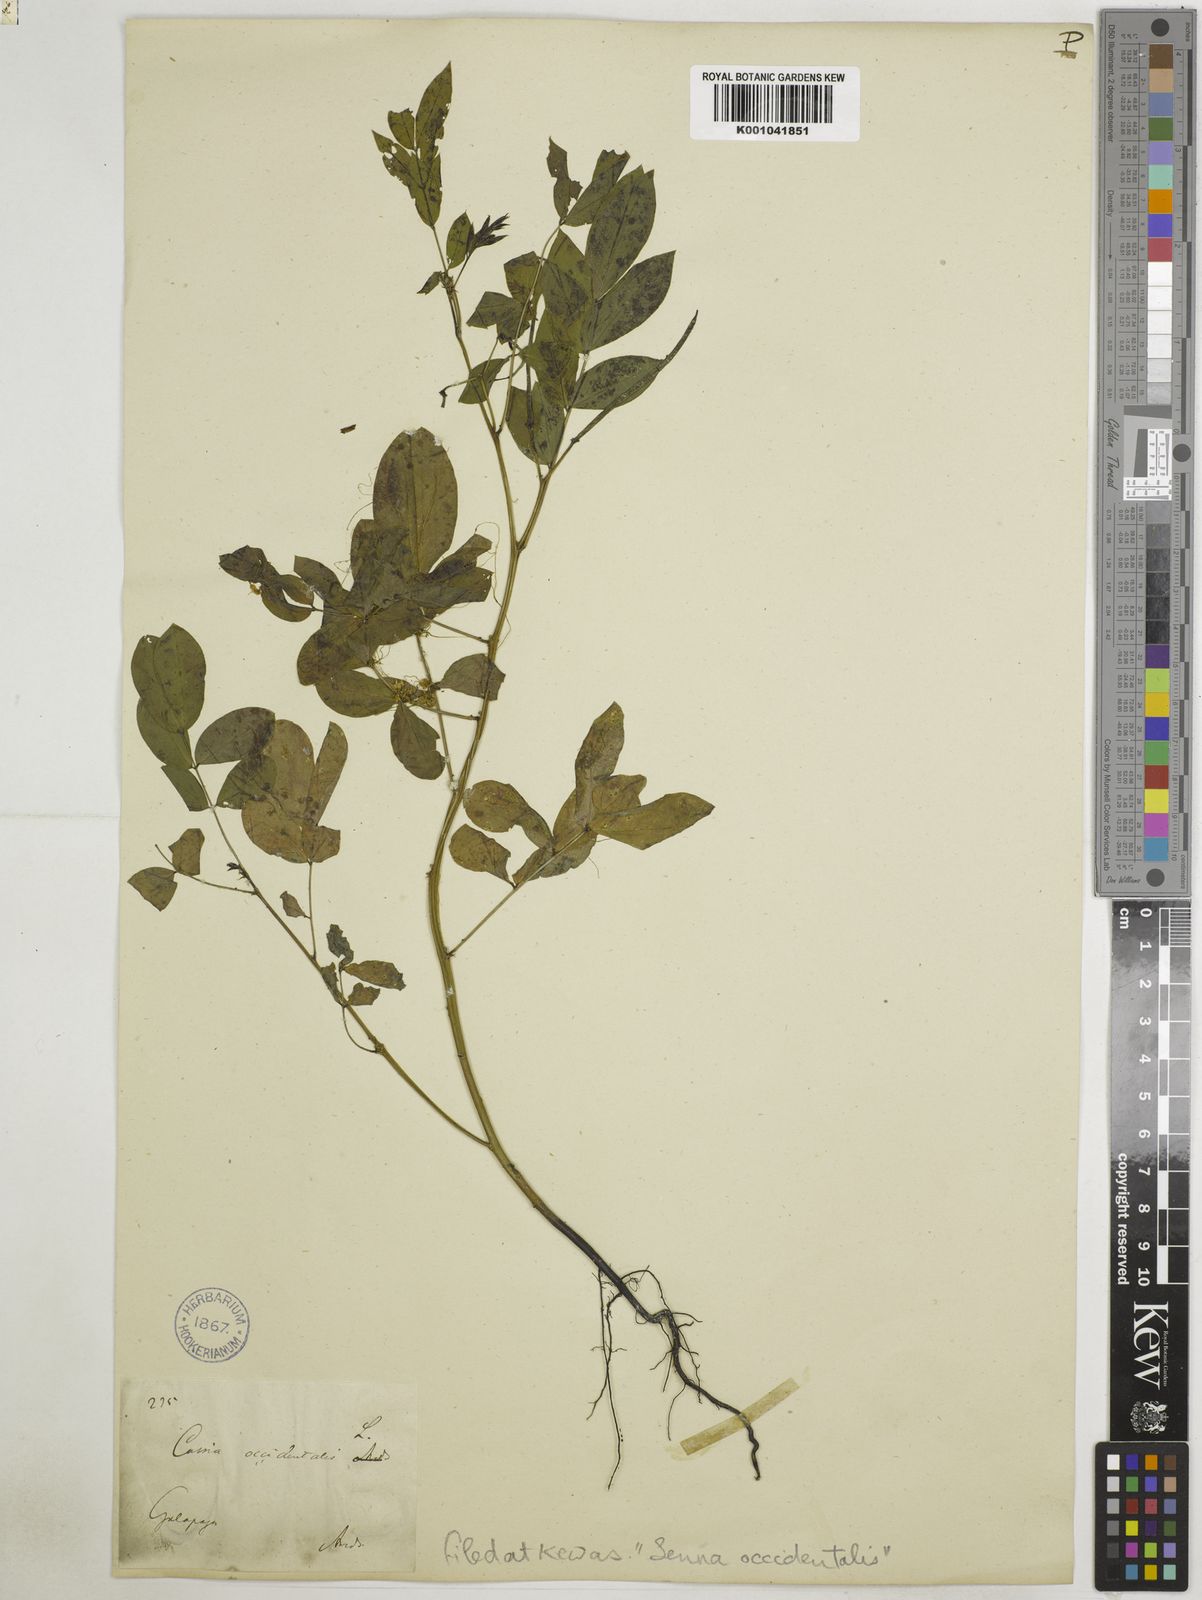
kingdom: Plantae
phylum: Tracheophyta
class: Magnoliopsida
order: Fabales
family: Fabaceae
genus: Senna
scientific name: Senna occidentalis
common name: Septicweed
